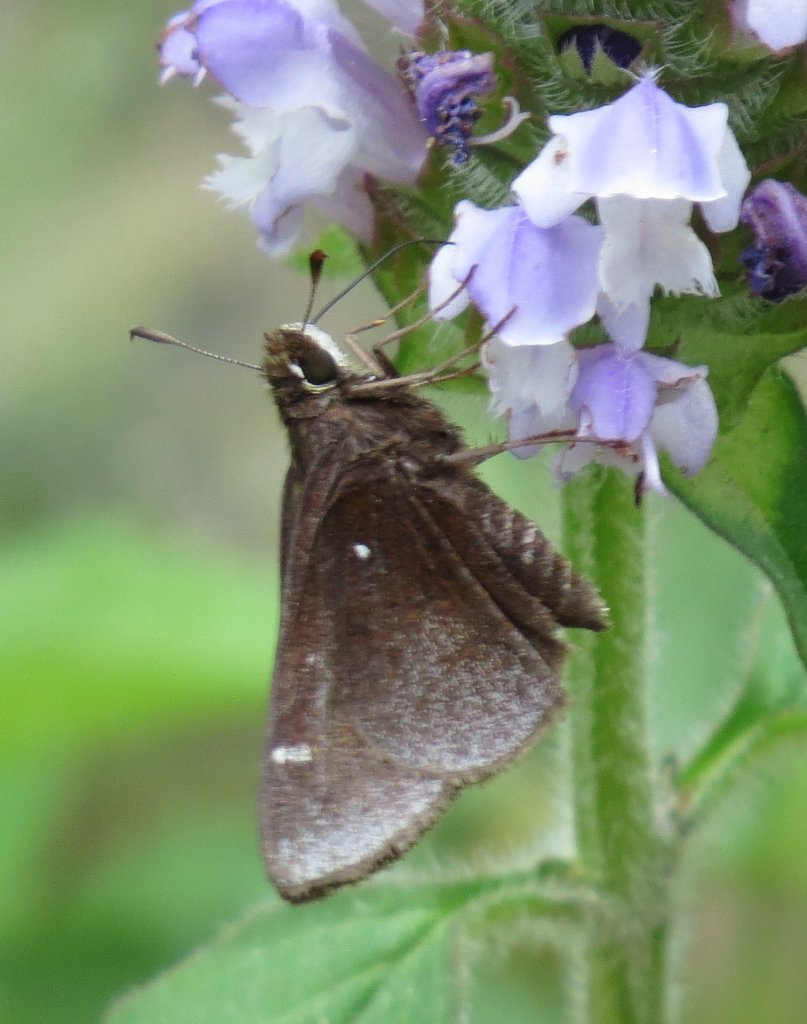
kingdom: Animalia
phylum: Arthropoda
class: Insecta
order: Lepidoptera
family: Hesperiidae
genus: Atrytonopsis
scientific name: Atrytonopsis hianna
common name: Dusted Skipper
